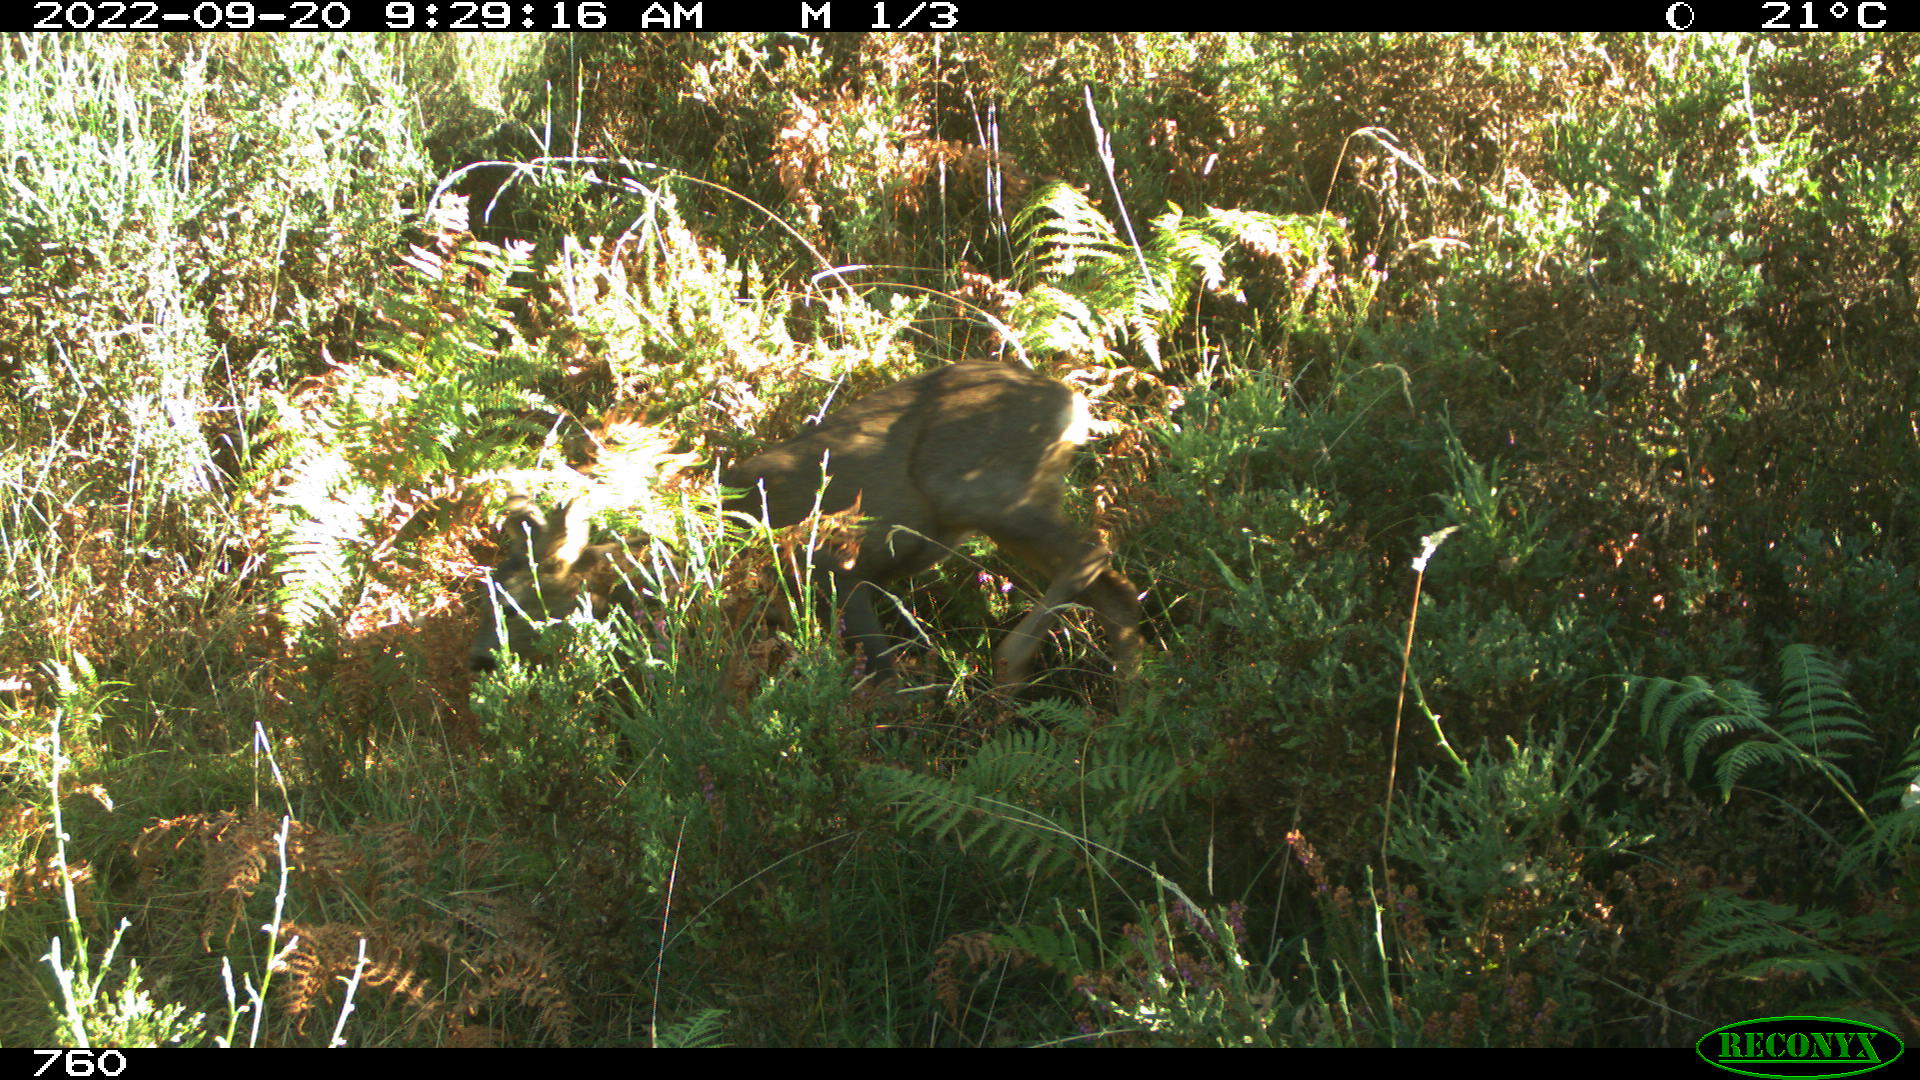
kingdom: Animalia
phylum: Chordata
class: Mammalia
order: Artiodactyla
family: Cervidae
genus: Capreolus
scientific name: Capreolus capreolus
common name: Western roe deer
